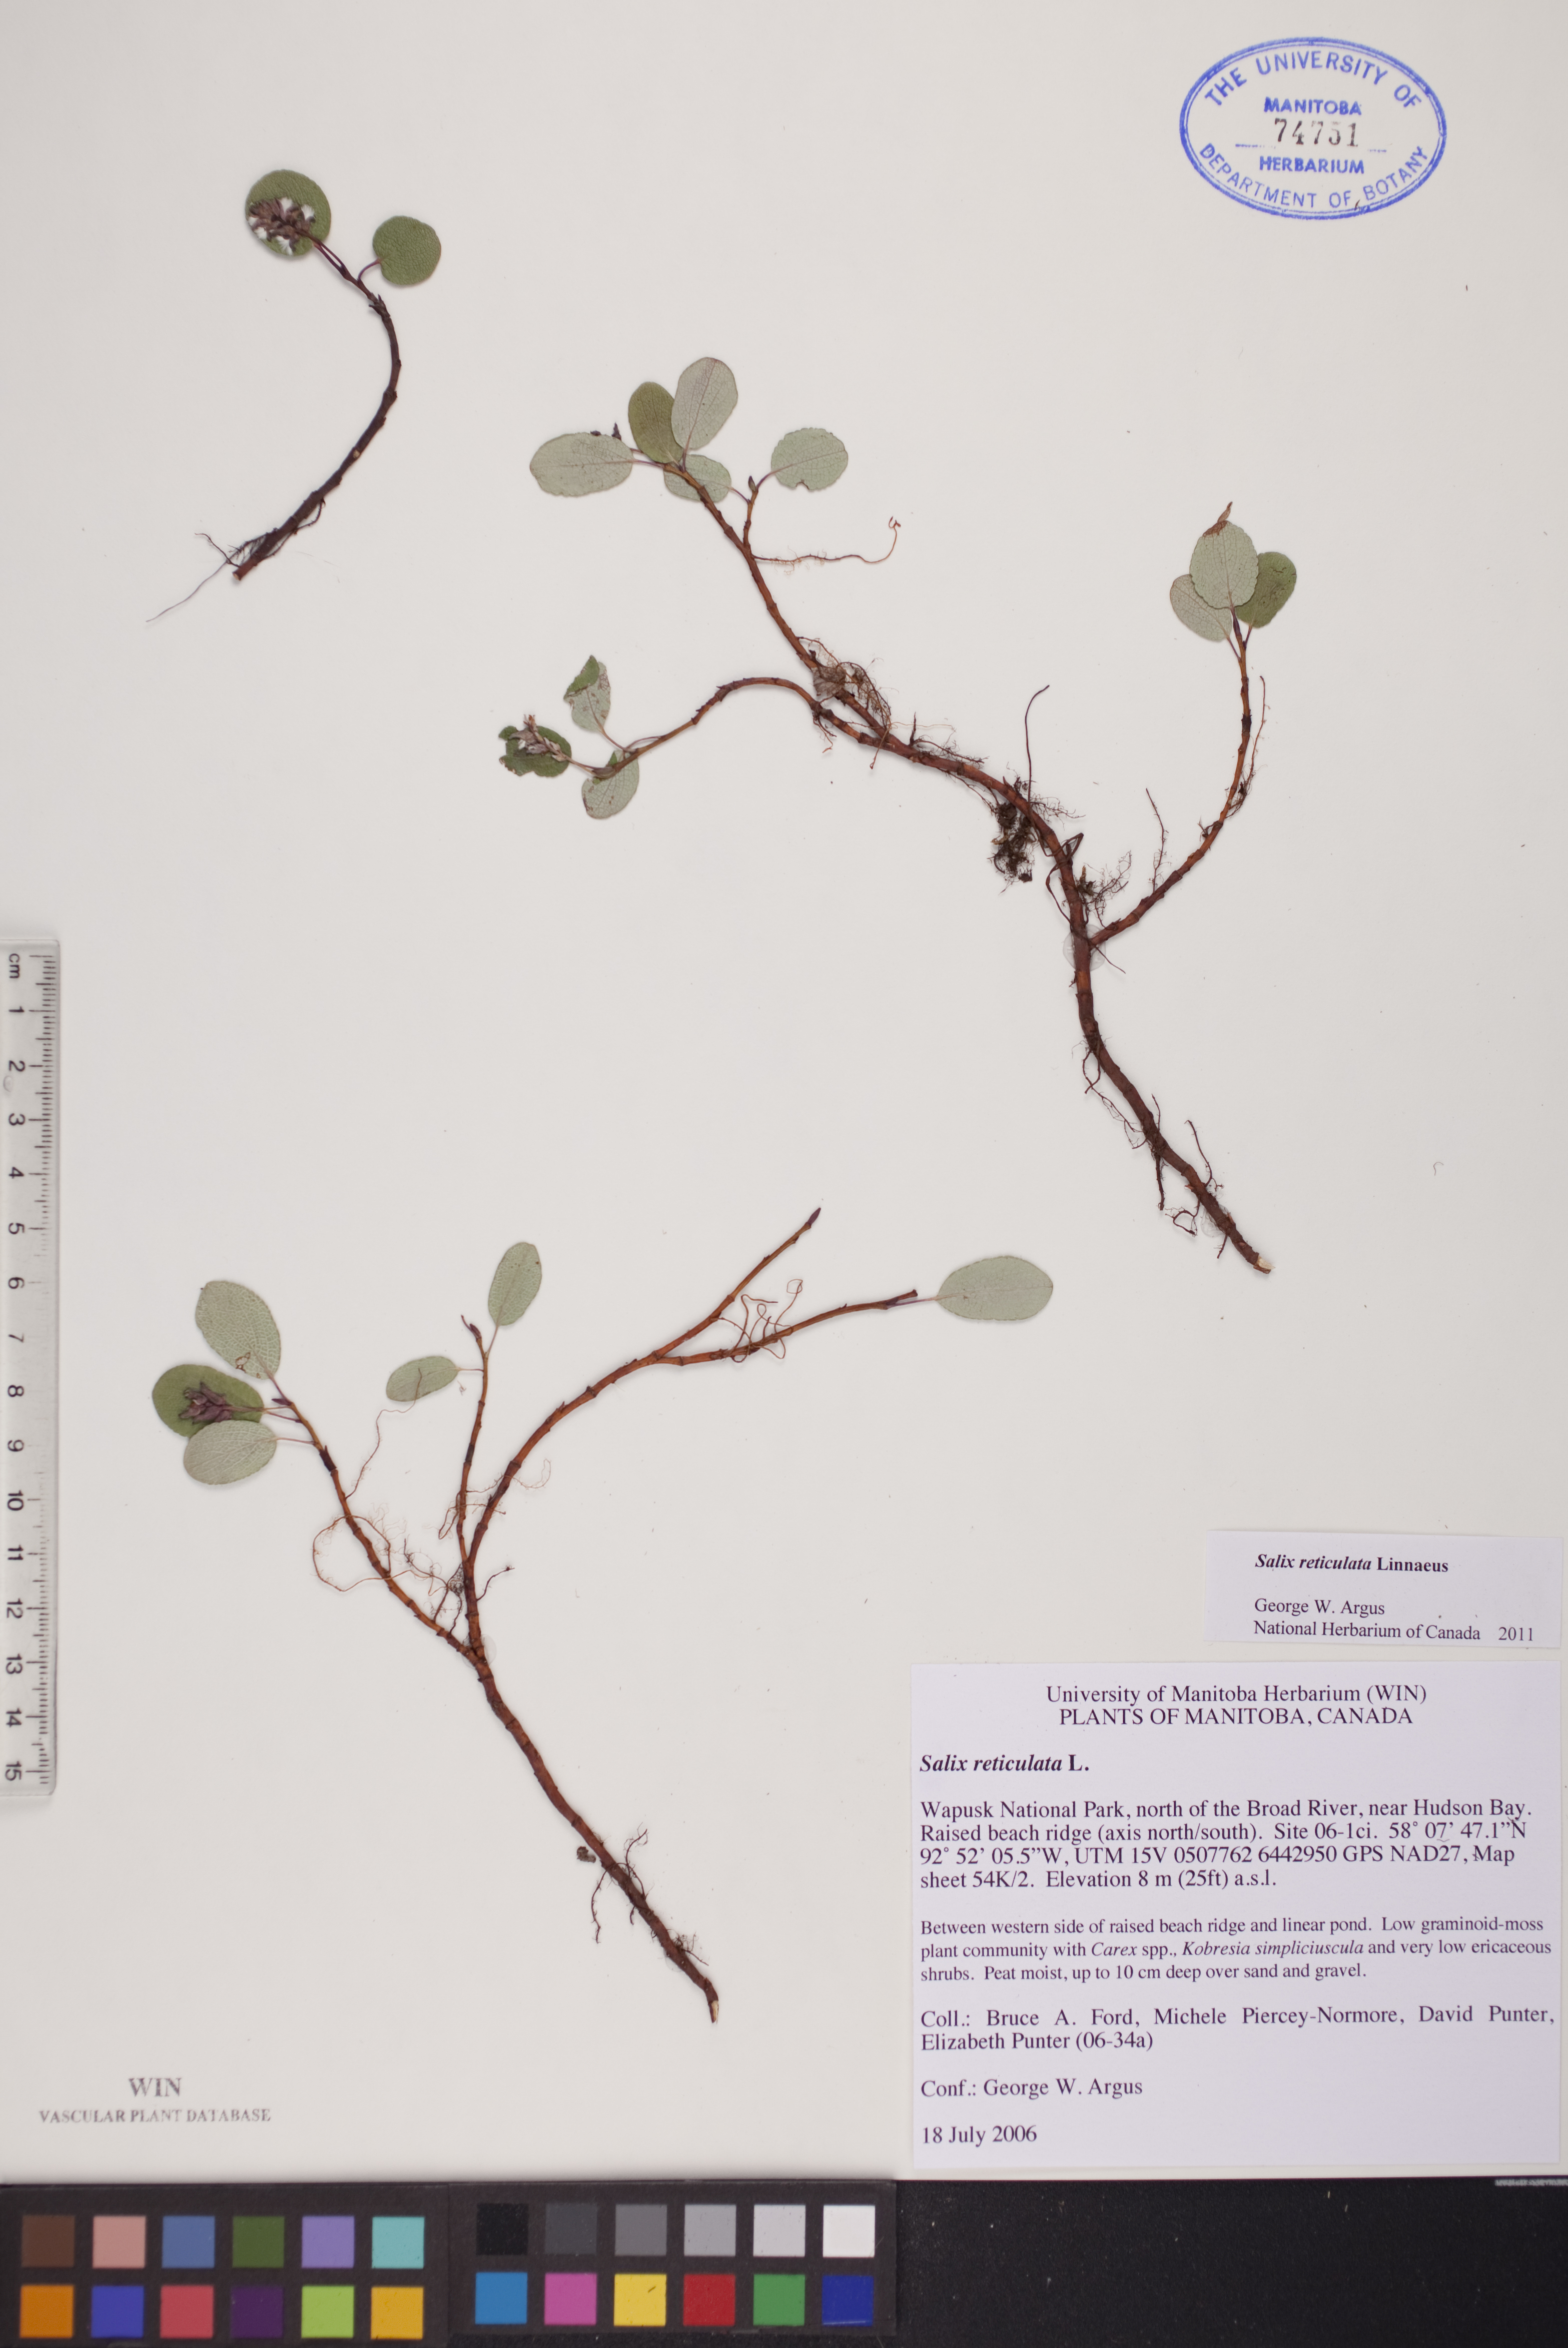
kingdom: Plantae
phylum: Tracheophyta
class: Magnoliopsida
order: Malpighiales
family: Salicaceae
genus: Salix
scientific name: Salix reticulata
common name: Net-leaved willow
